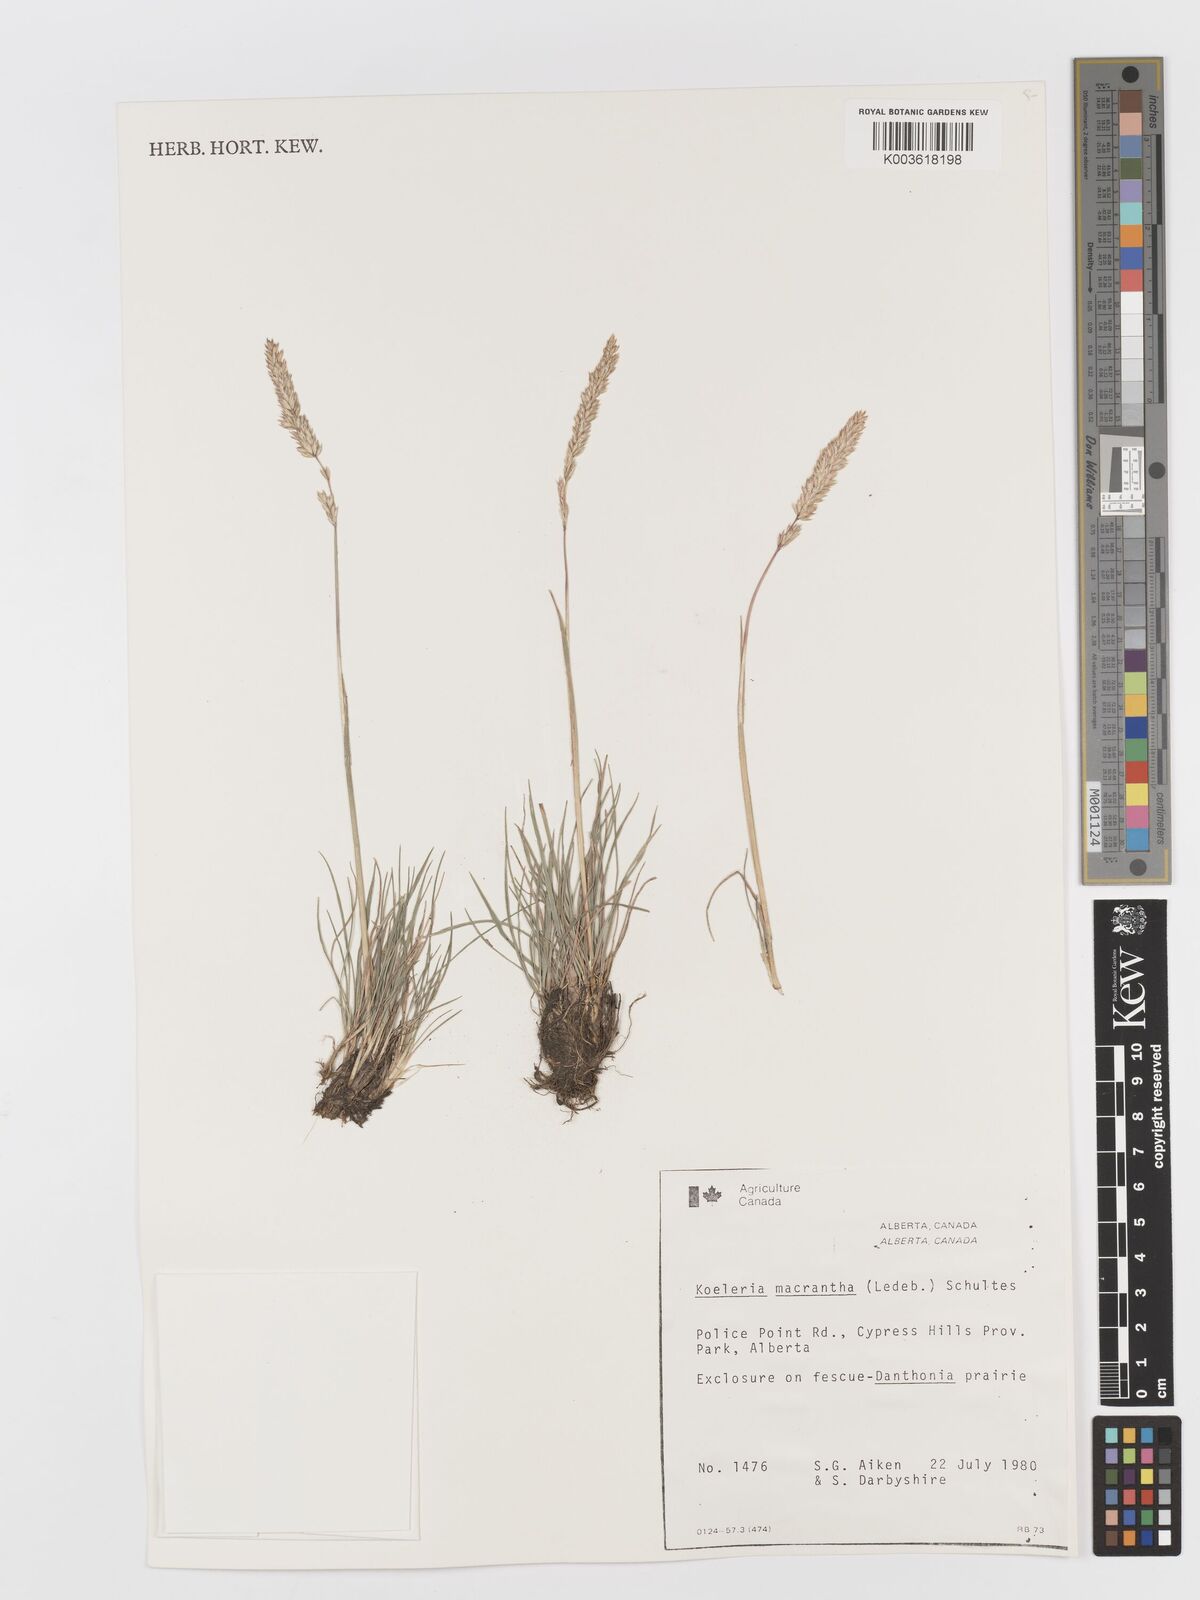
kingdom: Plantae
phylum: Tracheophyta
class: Liliopsida
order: Poales
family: Poaceae
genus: Koeleria
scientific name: Koeleria
